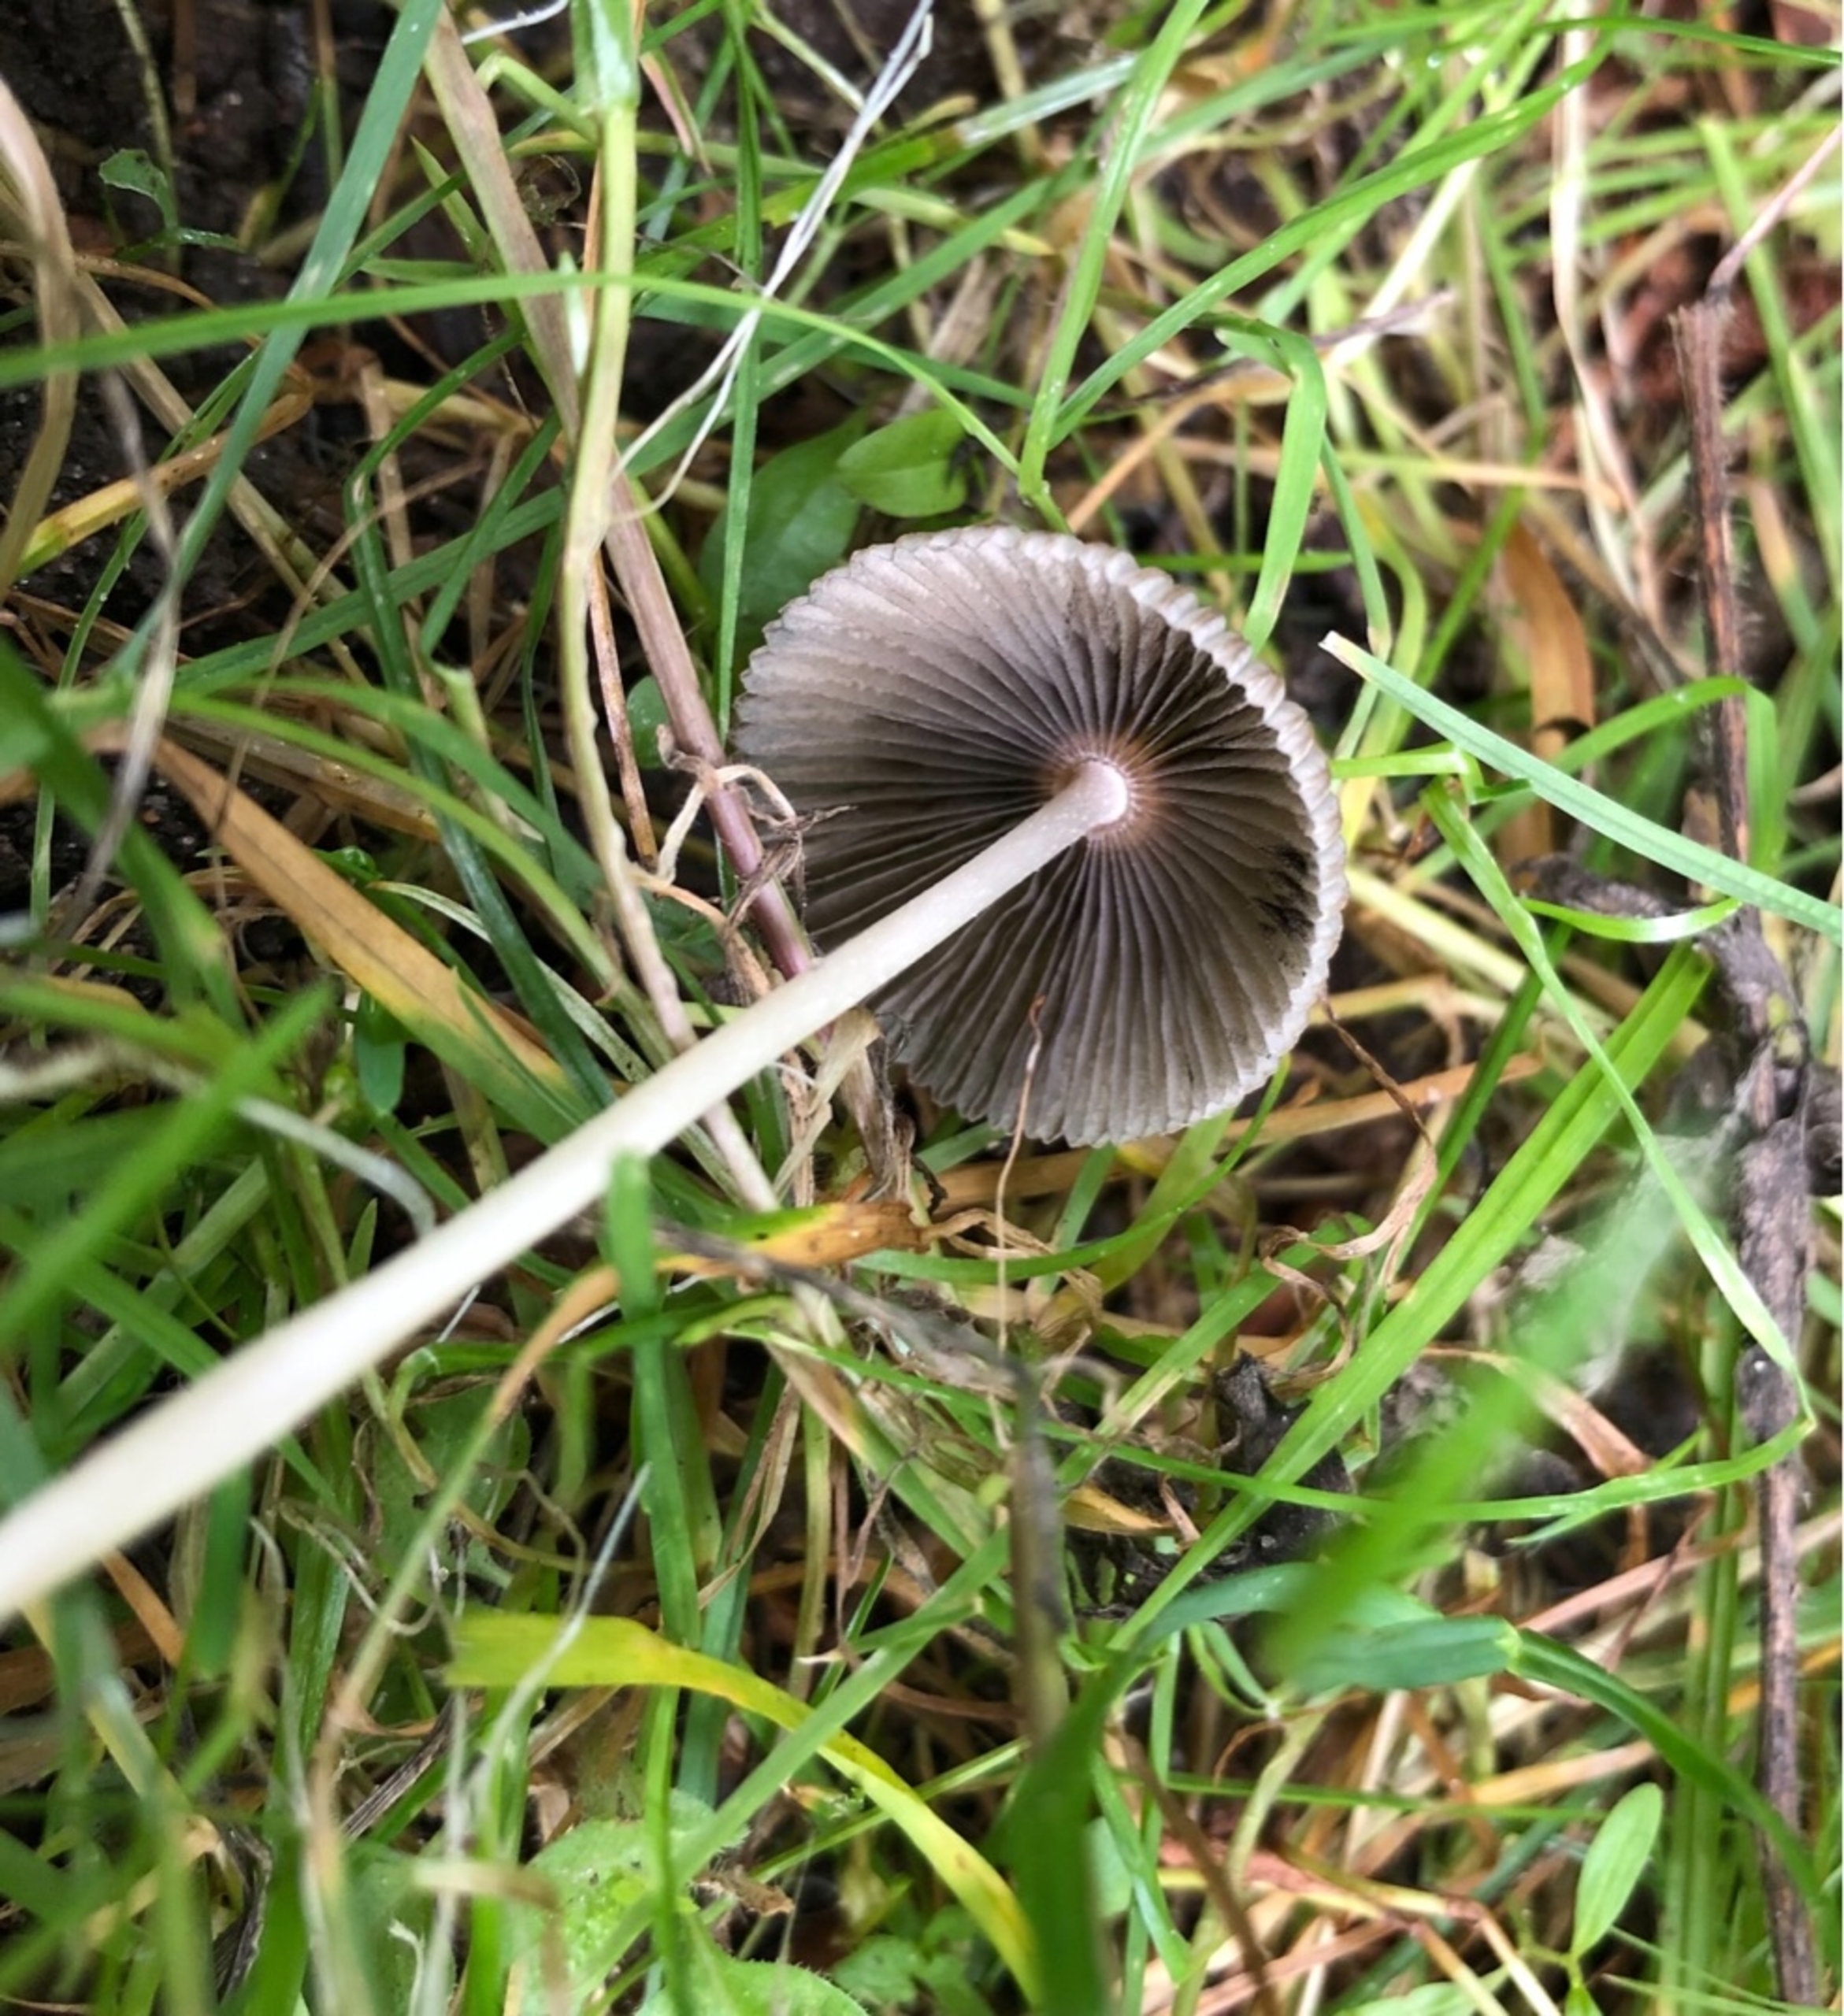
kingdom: Fungi
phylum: Basidiomycota
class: Agaricomycetes
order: Agaricales
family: Psathyrellaceae
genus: Parasola
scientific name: Parasola
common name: Hjulhat
